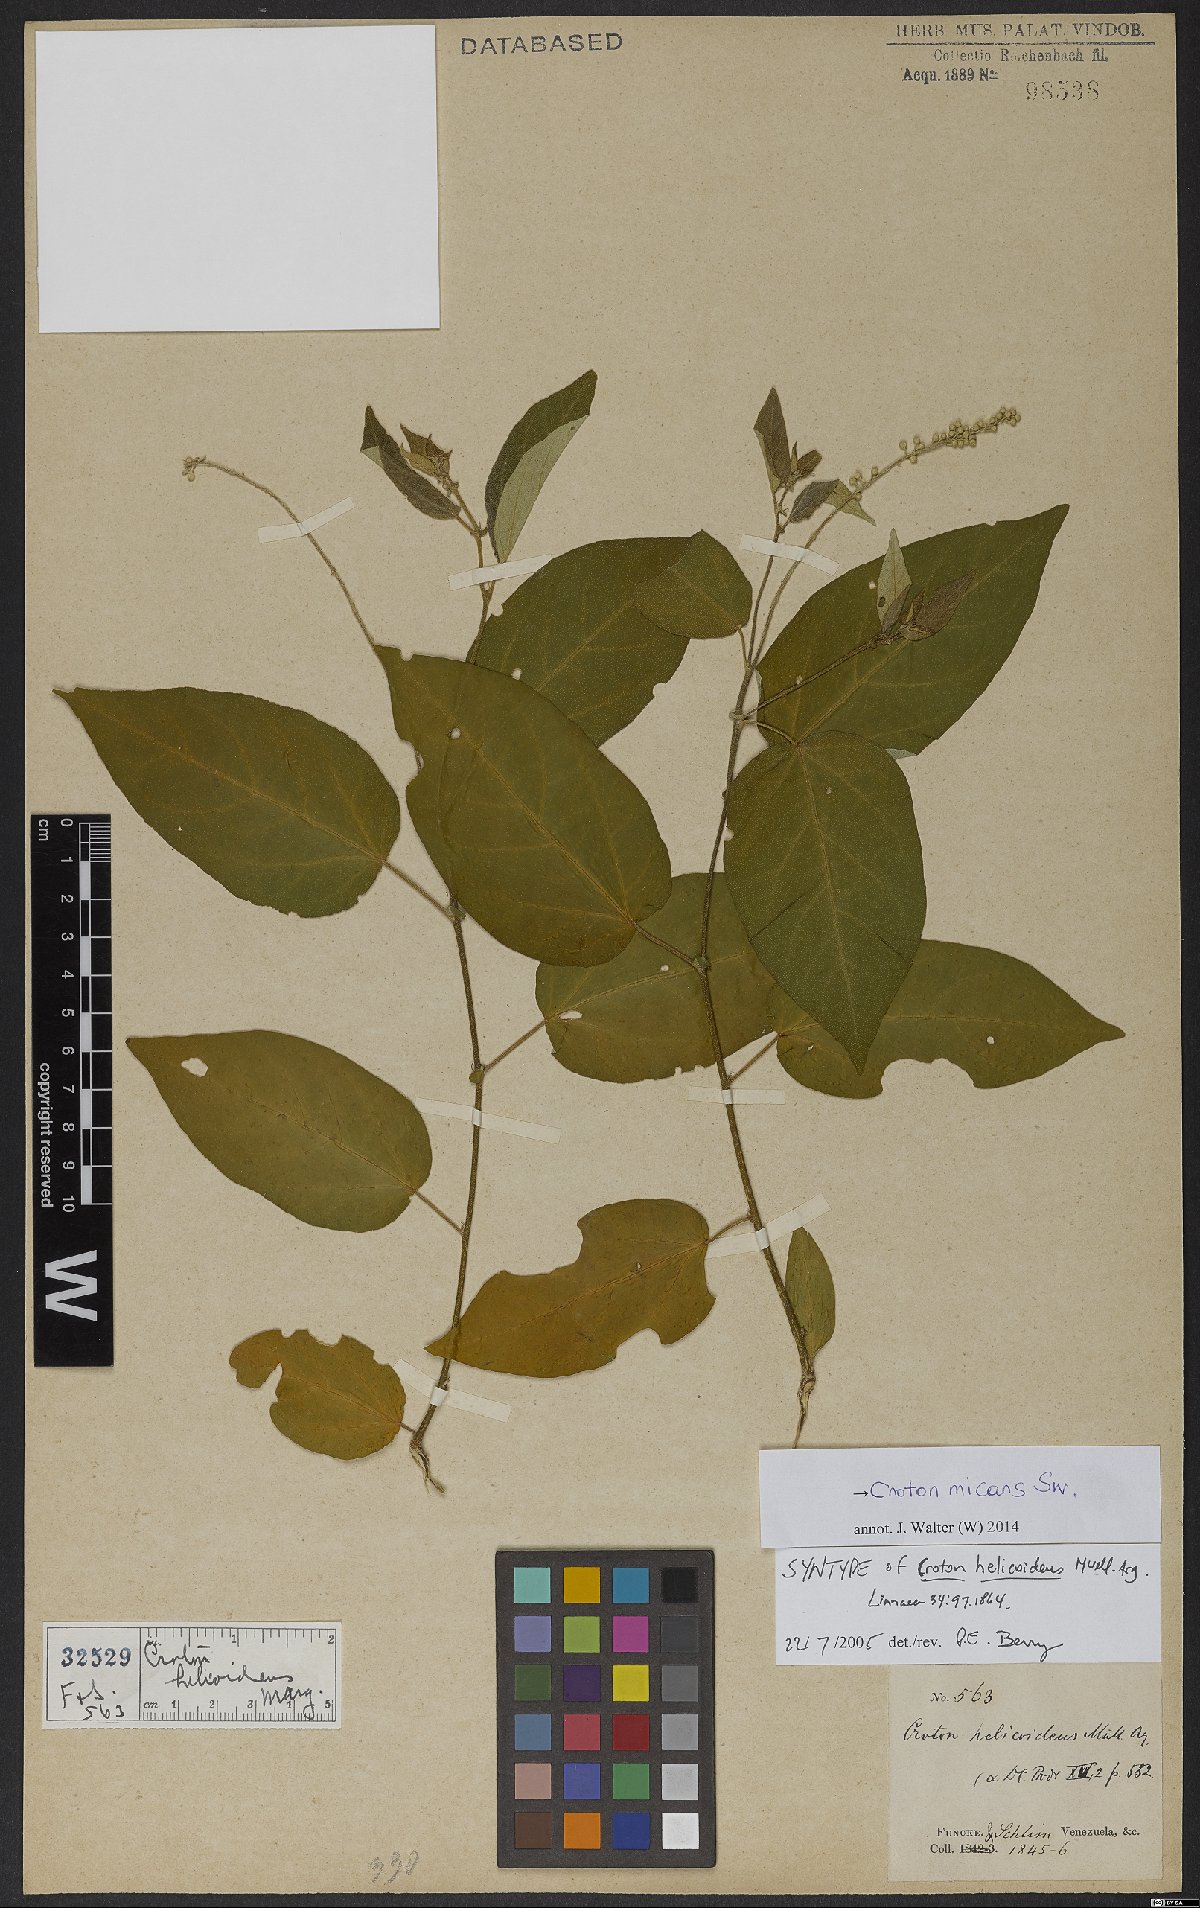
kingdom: Plantae
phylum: Tracheophyta
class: Magnoliopsida
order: Malpighiales
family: Euphorbiaceae
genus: Croton
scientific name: Croton micans
